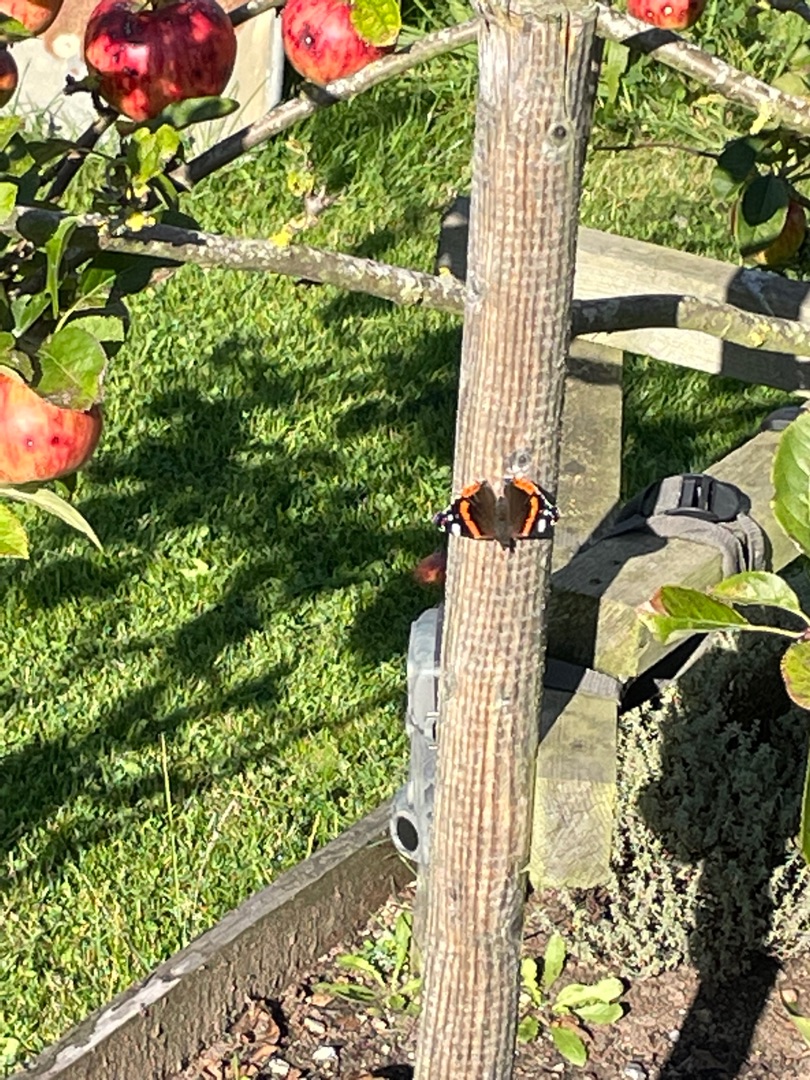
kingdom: Animalia
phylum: Arthropoda
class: Insecta
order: Lepidoptera
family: Nymphalidae
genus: Vanessa
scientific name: Vanessa atalanta
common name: Admiral
